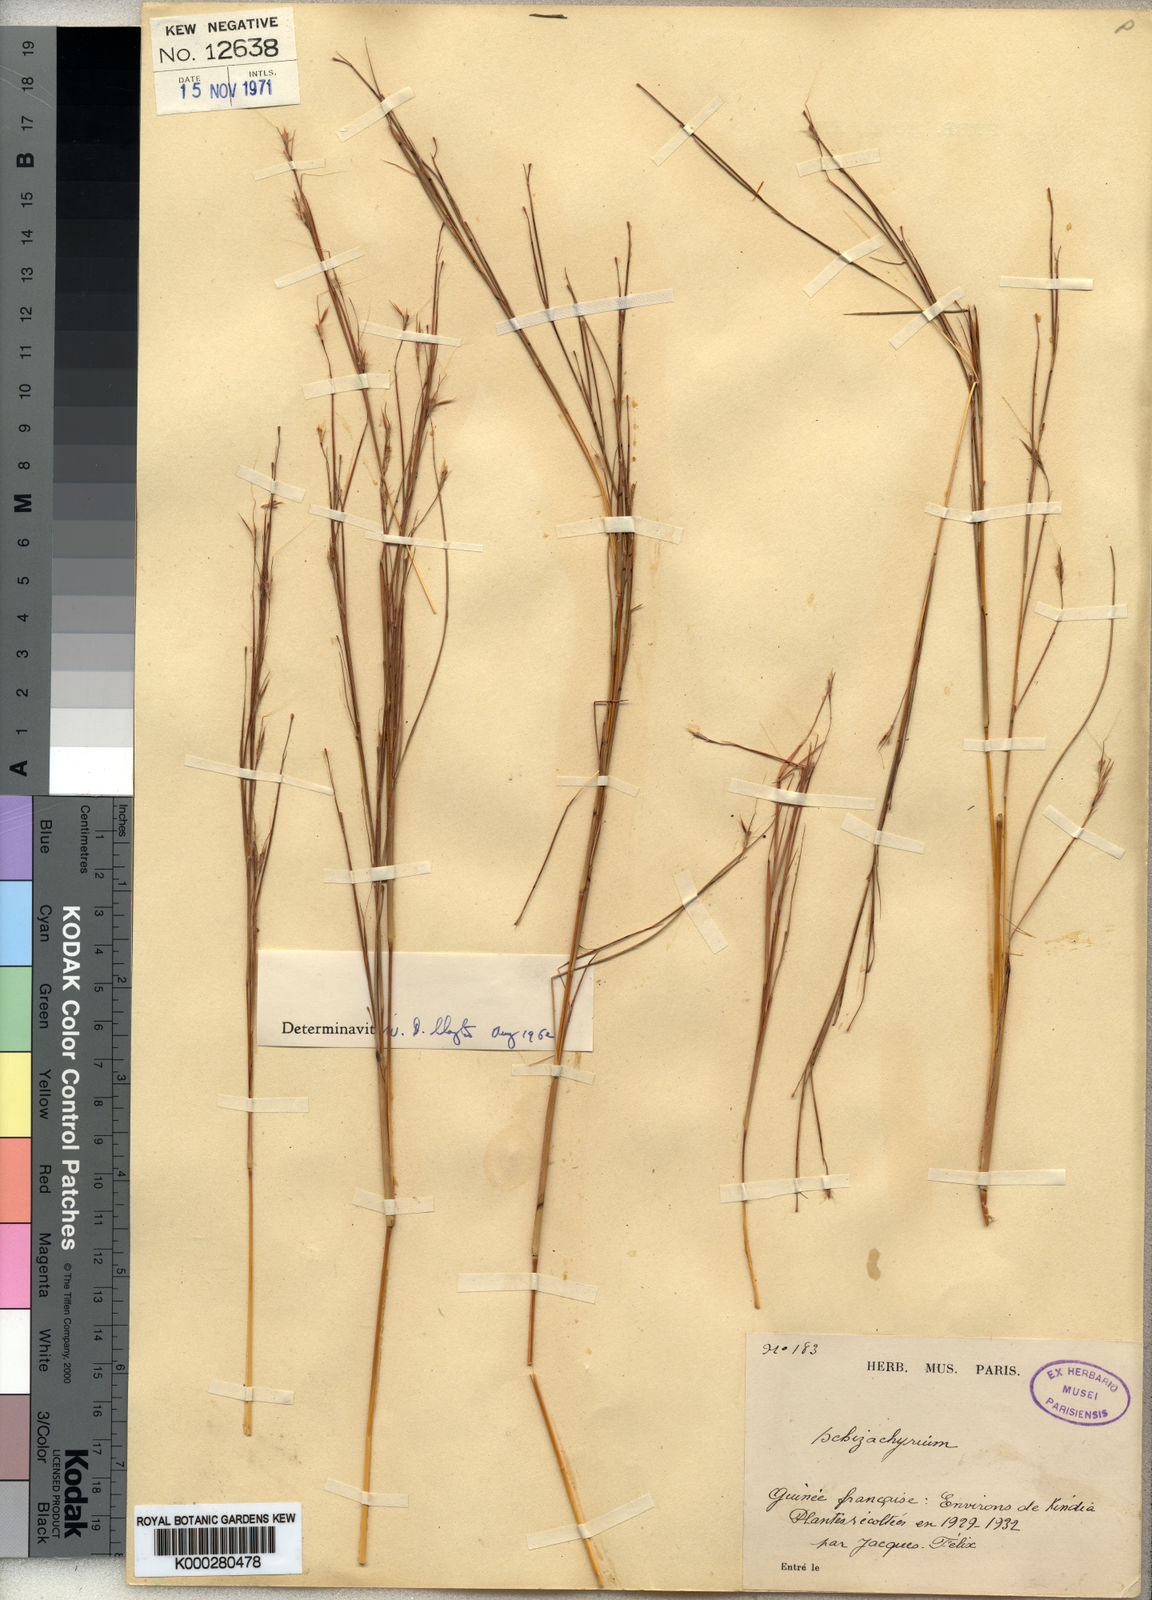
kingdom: Plantae
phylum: Tracheophyta
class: Liliopsida
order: Poales
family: Poaceae
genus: Schizachyrium
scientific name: Schizachyrium
